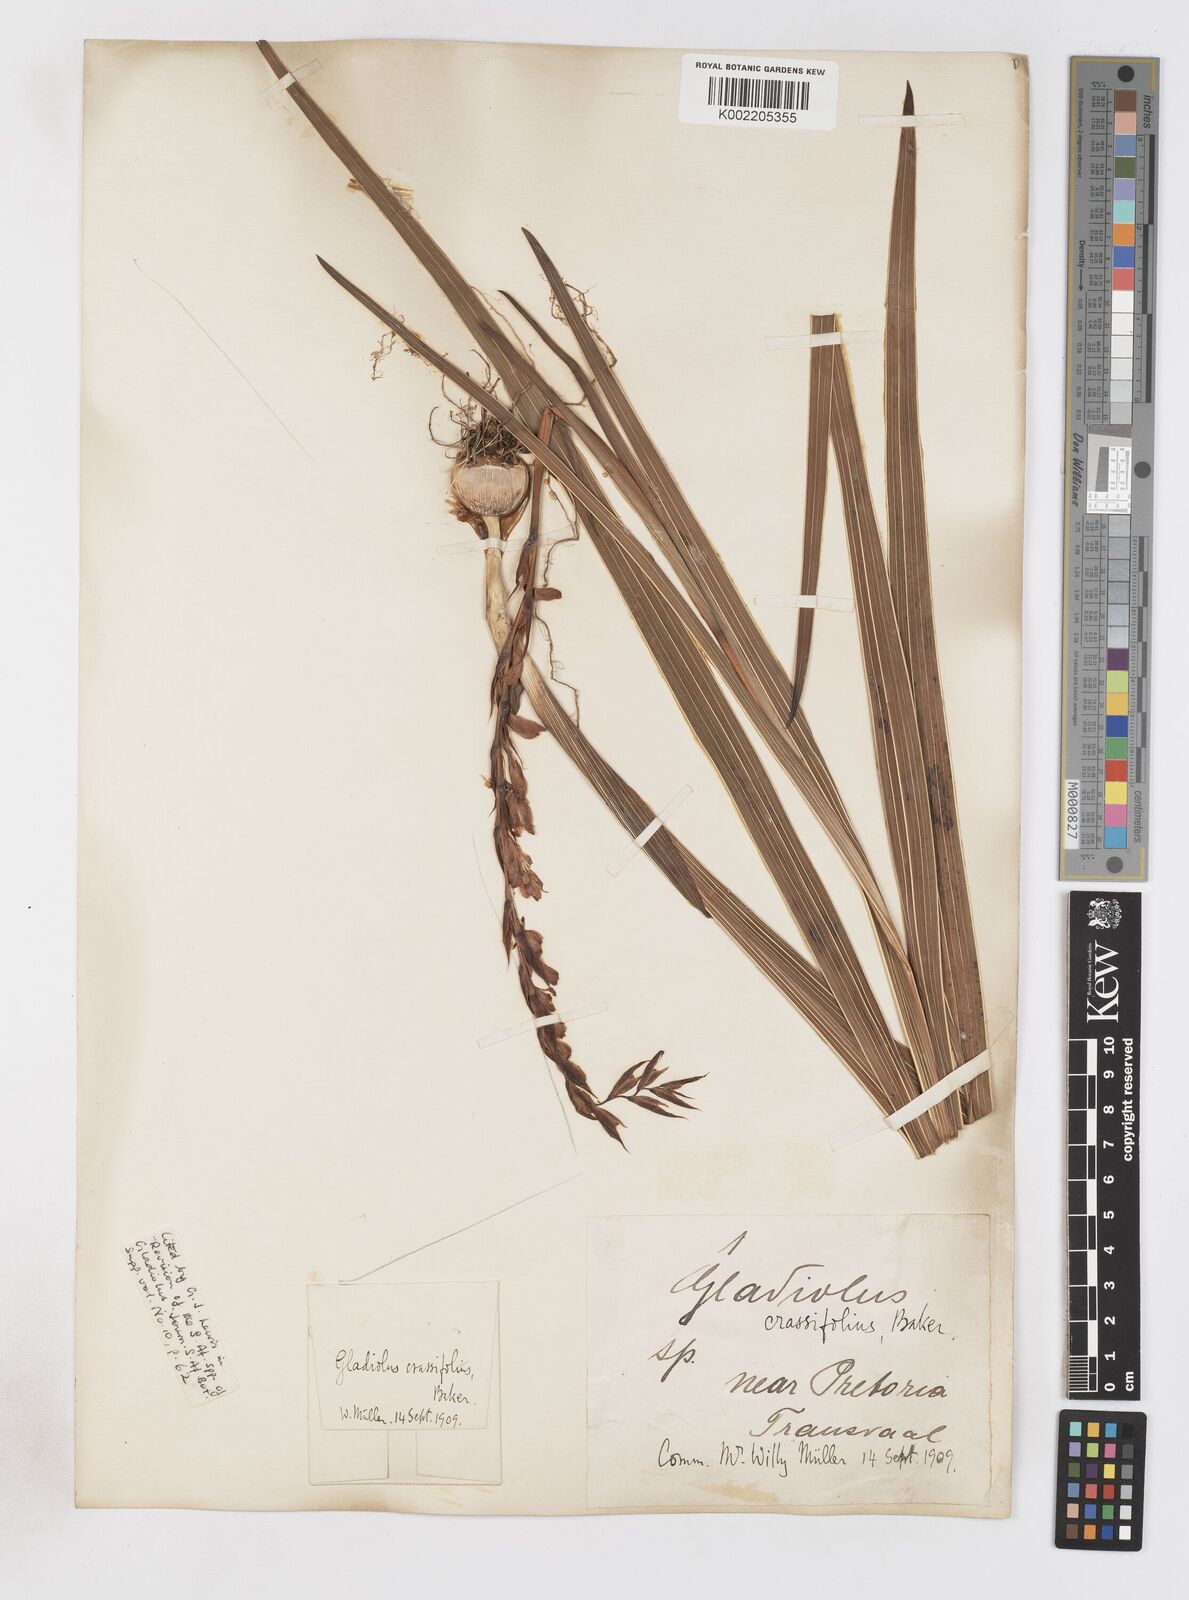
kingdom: Plantae
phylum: Tracheophyta
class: Liliopsida
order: Asparagales
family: Iridaceae
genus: Gladiolus
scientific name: Gladiolus crassifolius
